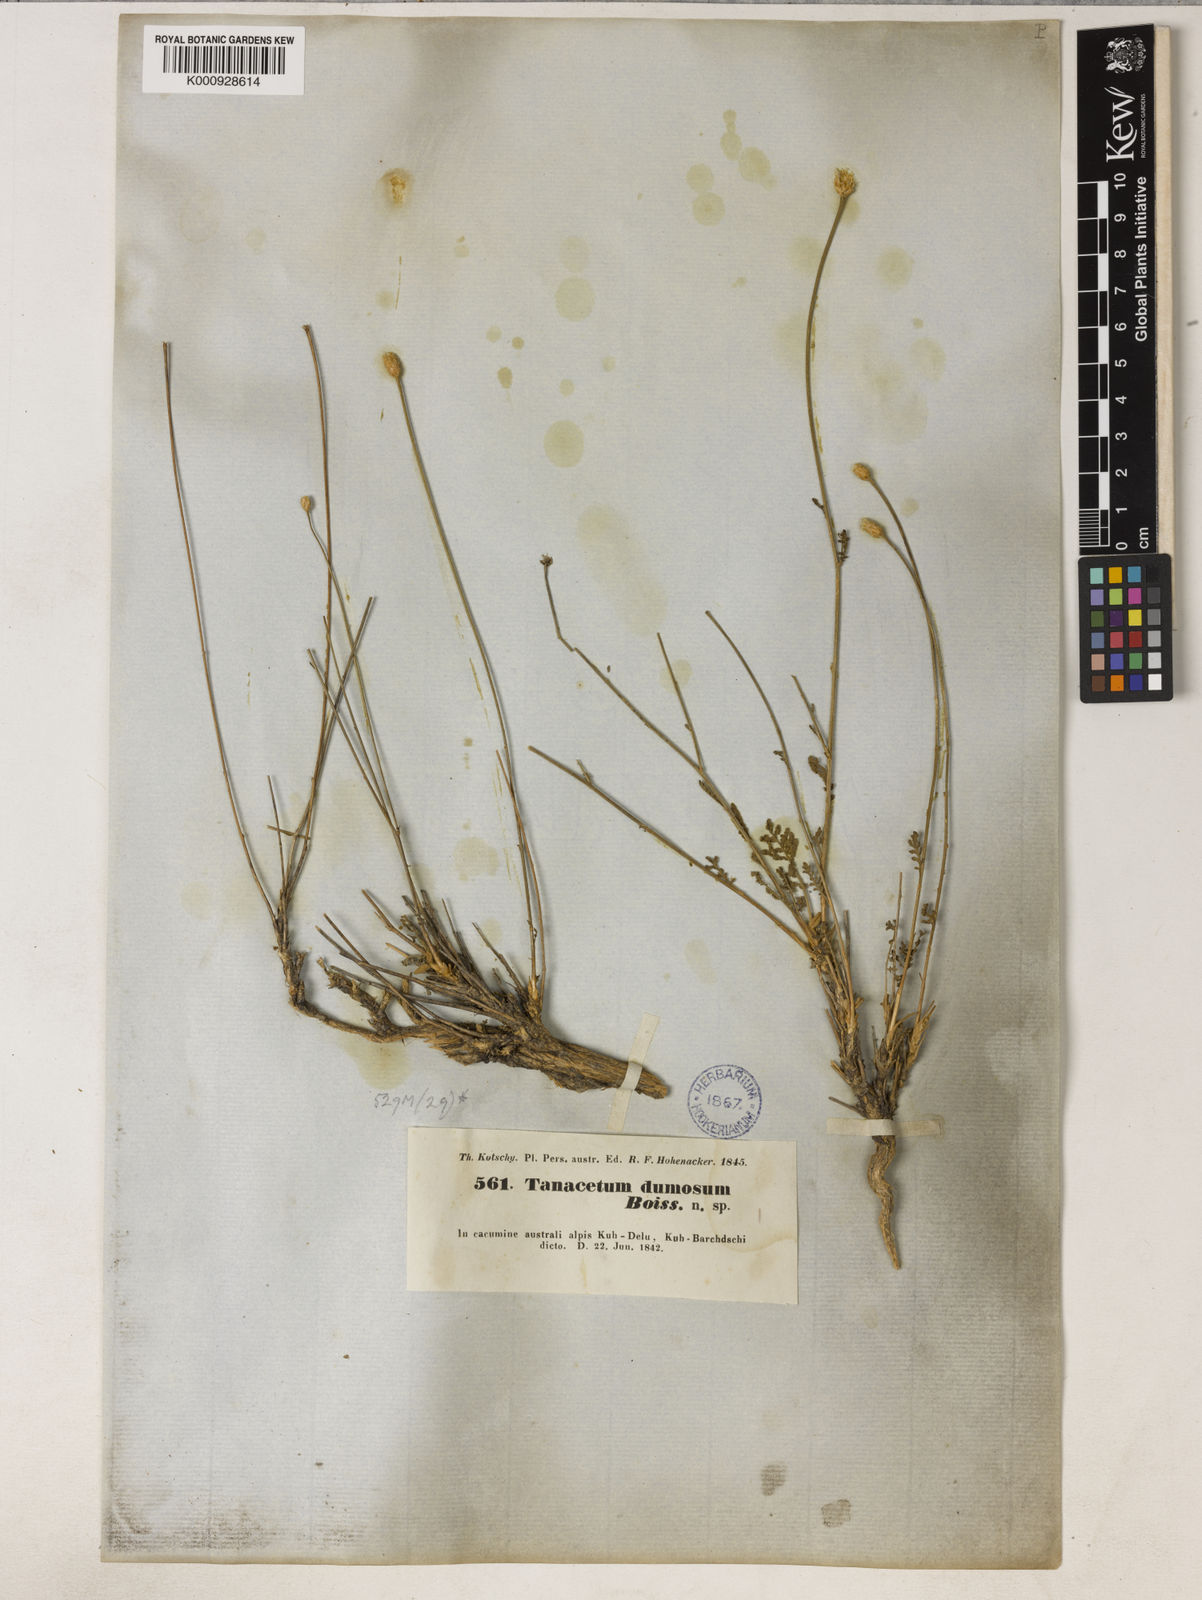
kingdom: Plantae
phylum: Tracheophyta
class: Magnoliopsida
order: Asterales
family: Asteraceae
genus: Tanacetum
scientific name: Tanacetum dumosum
